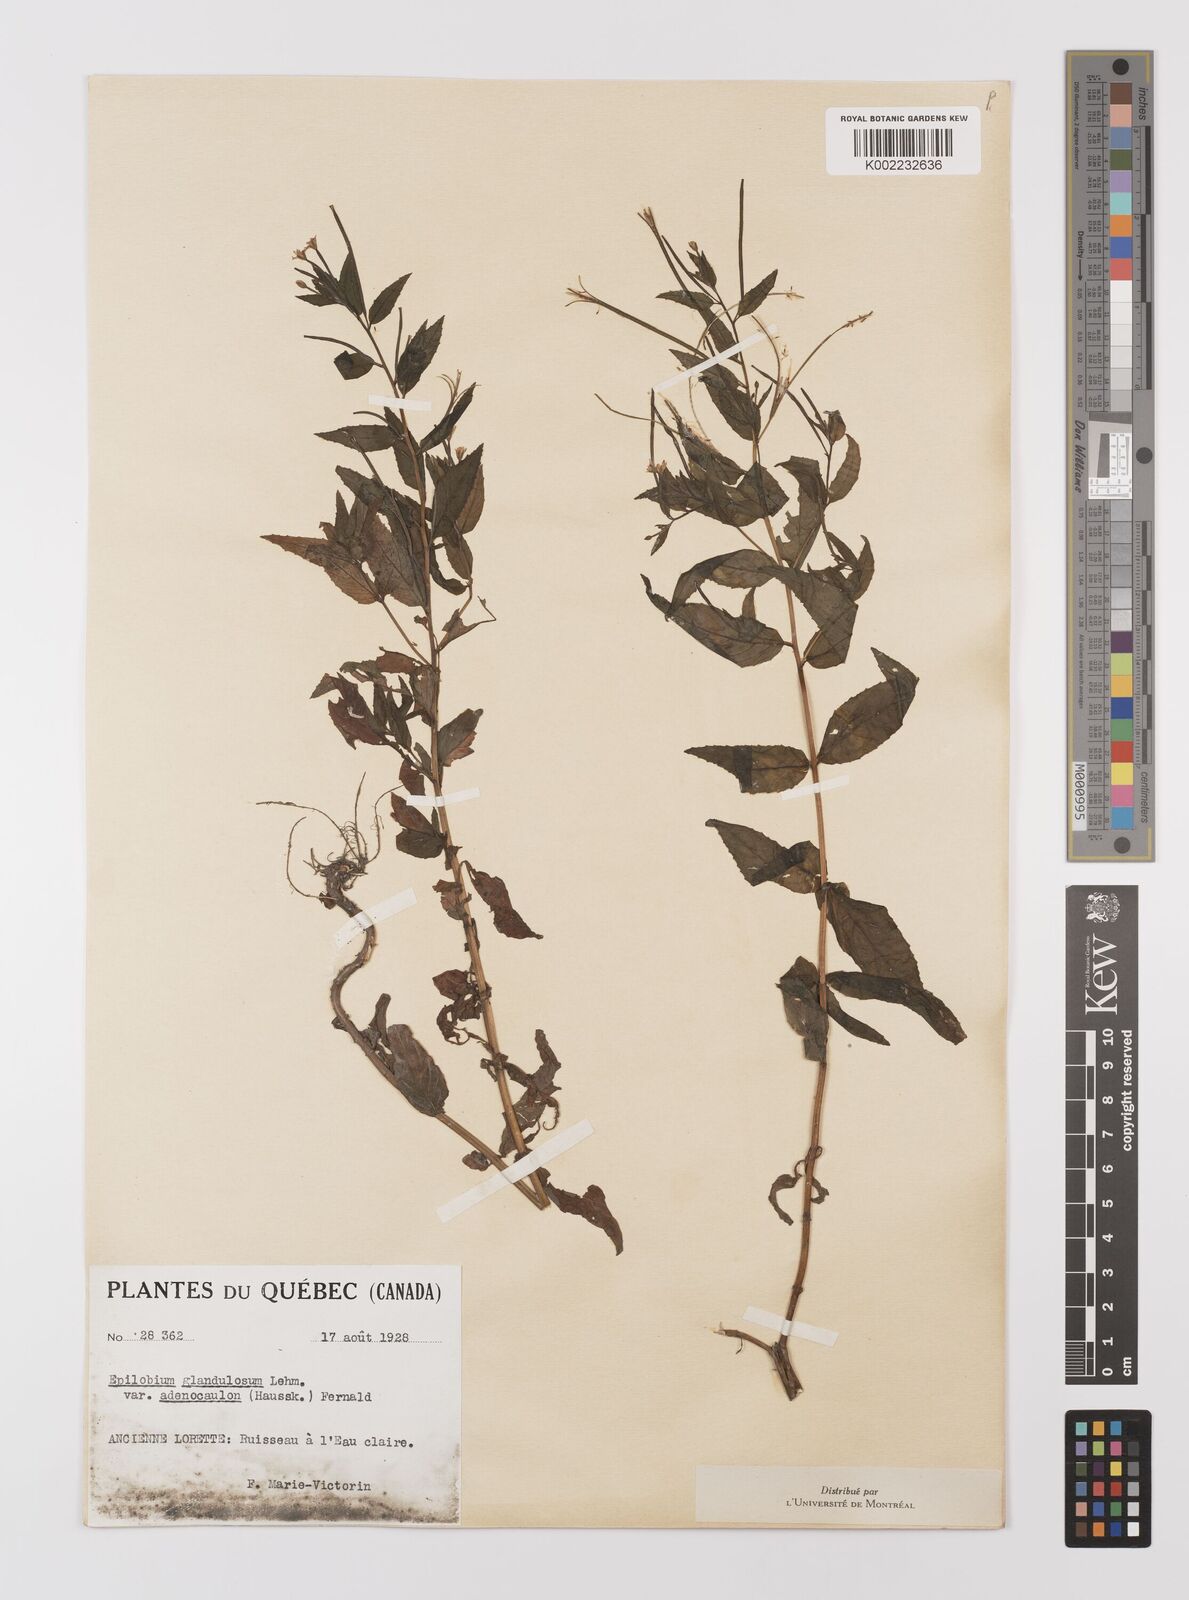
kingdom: Plantae
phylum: Tracheophyta
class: Magnoliopsida
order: Myrtales
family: Onagraceae
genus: Epilobium
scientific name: Epilobium ciliatum
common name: American willowherb
